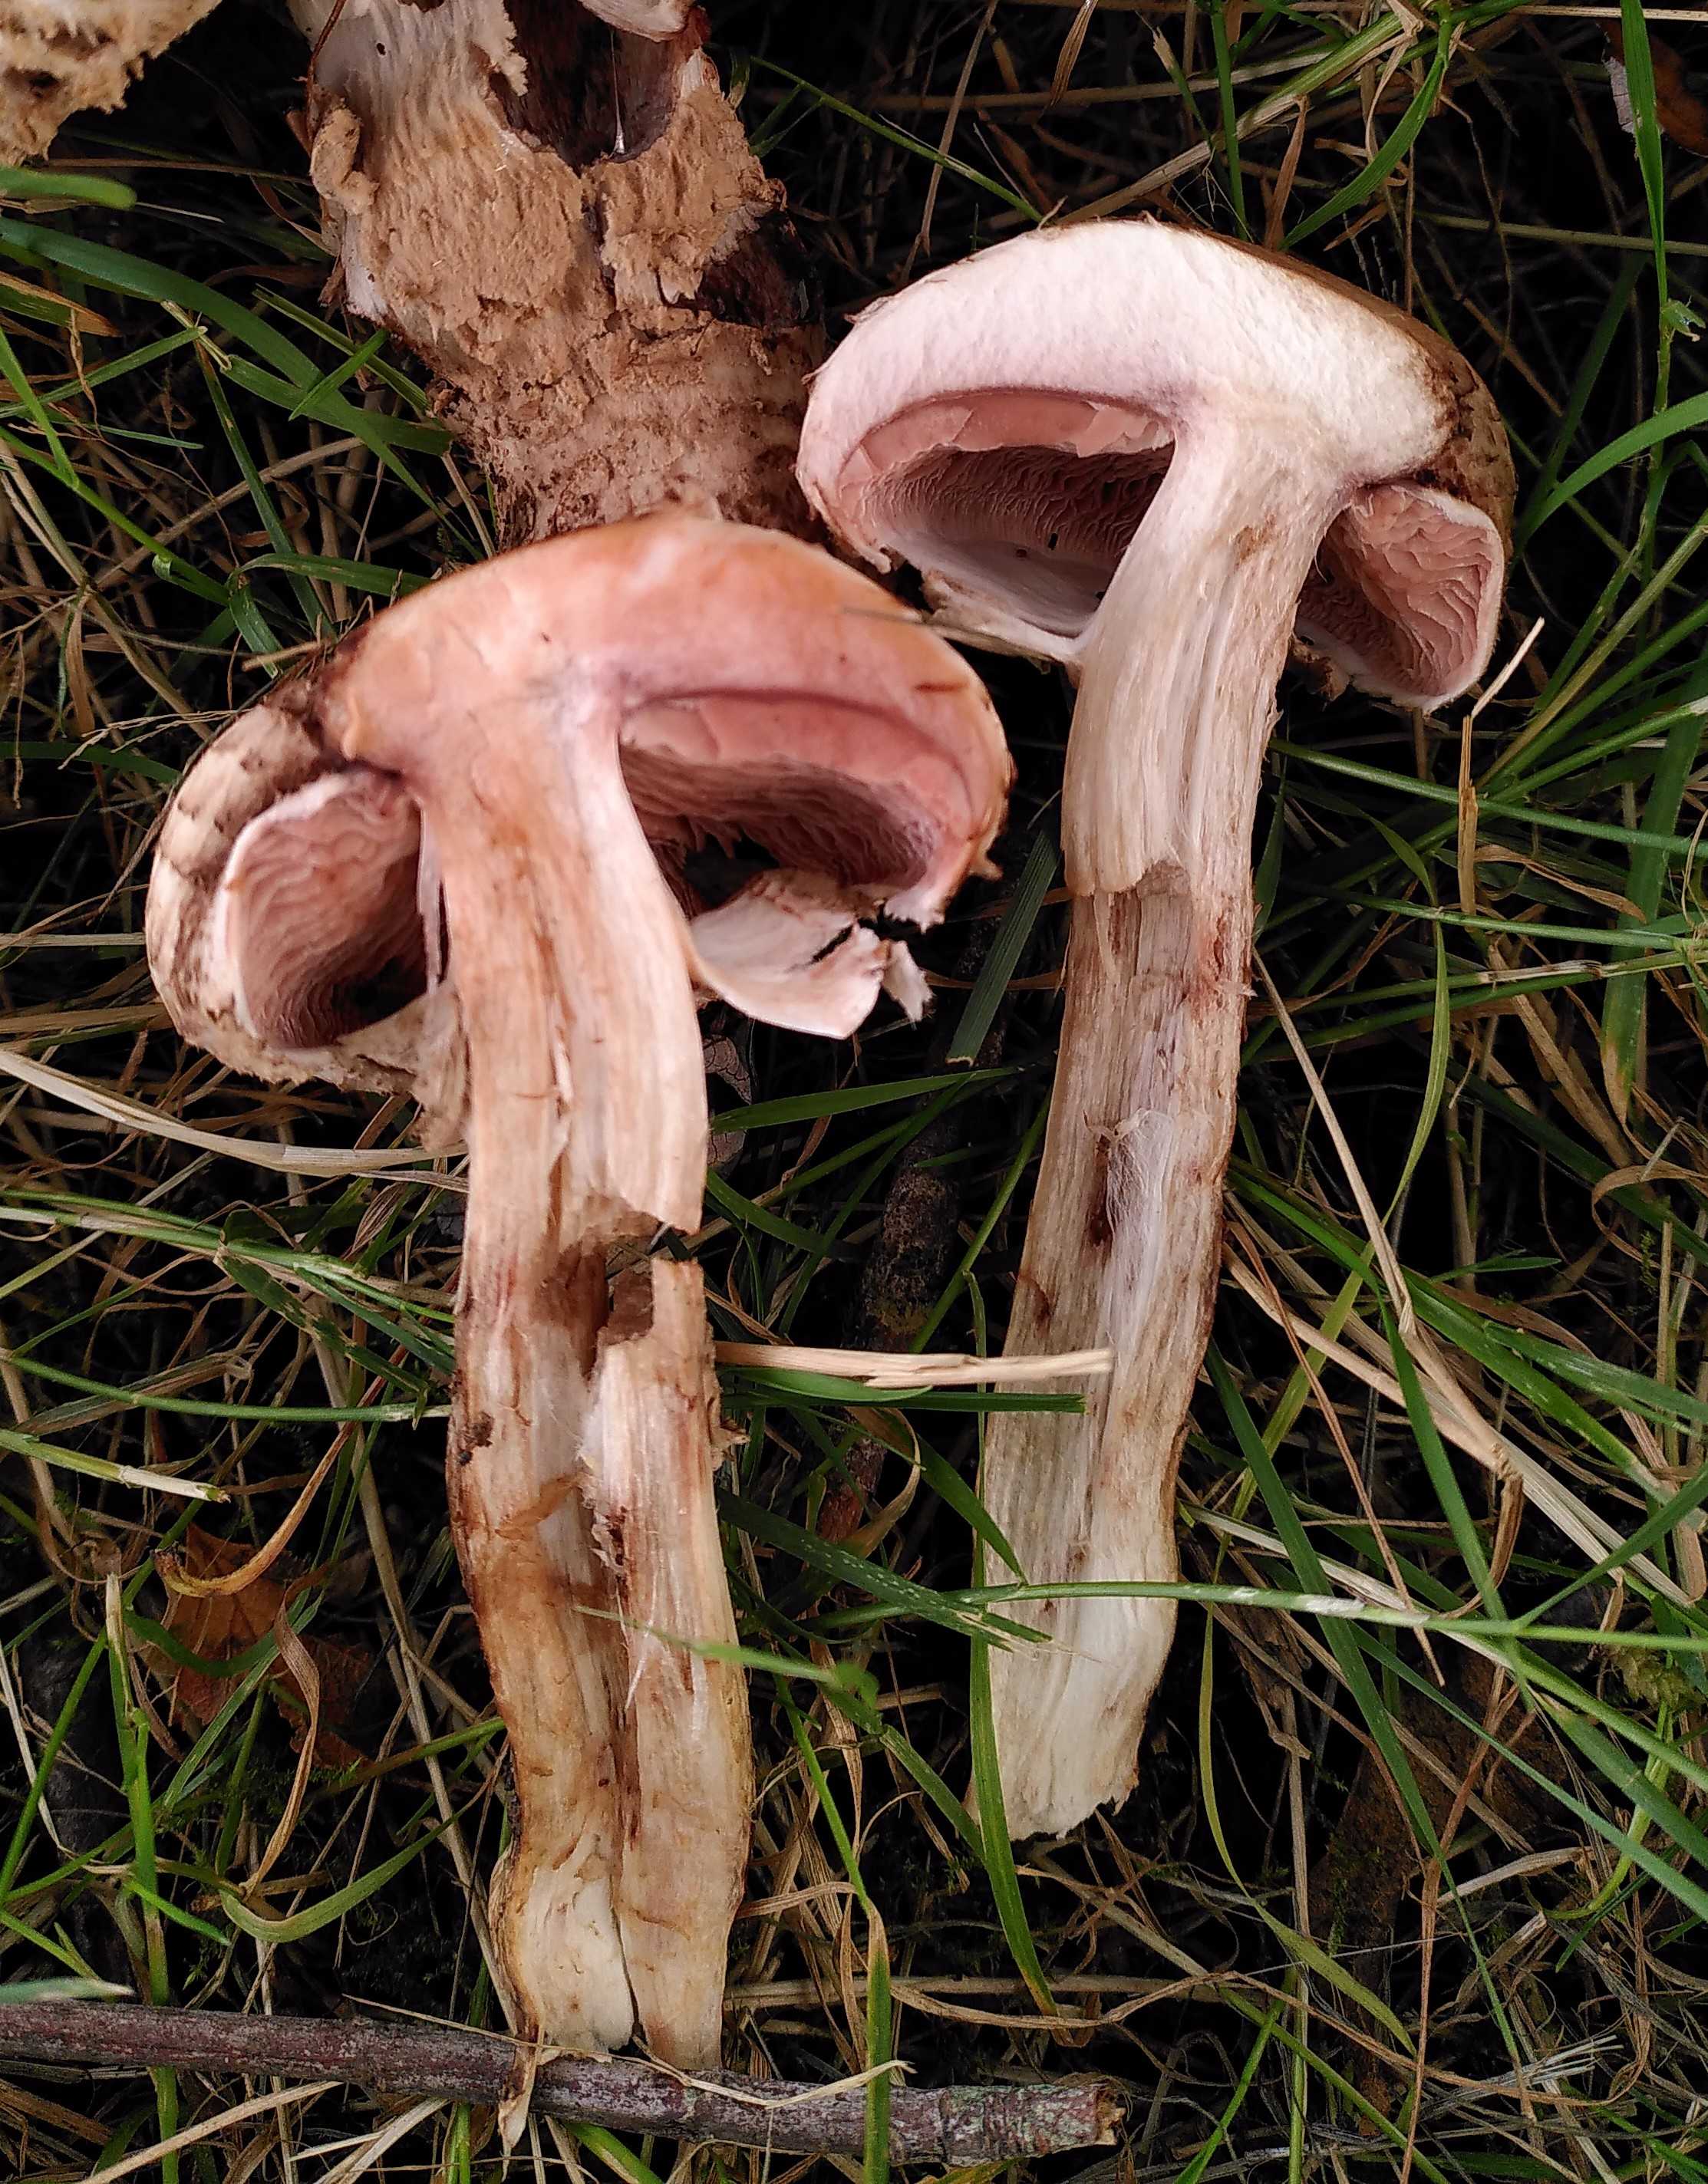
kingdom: Fungi
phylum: Basidiomycota
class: Agaricomycetes
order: Agaricales
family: Agaricaceae
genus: Agaricus
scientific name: Agaricus bohusii
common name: krumskællet champignon
